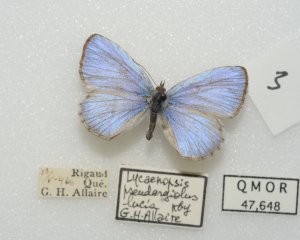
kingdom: Animalia
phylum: Arthropoda
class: Insecta
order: Lepidoptera
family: Lycaenidae
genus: Celastrina
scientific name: Celastrina lucia
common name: Northern Spring Azure
